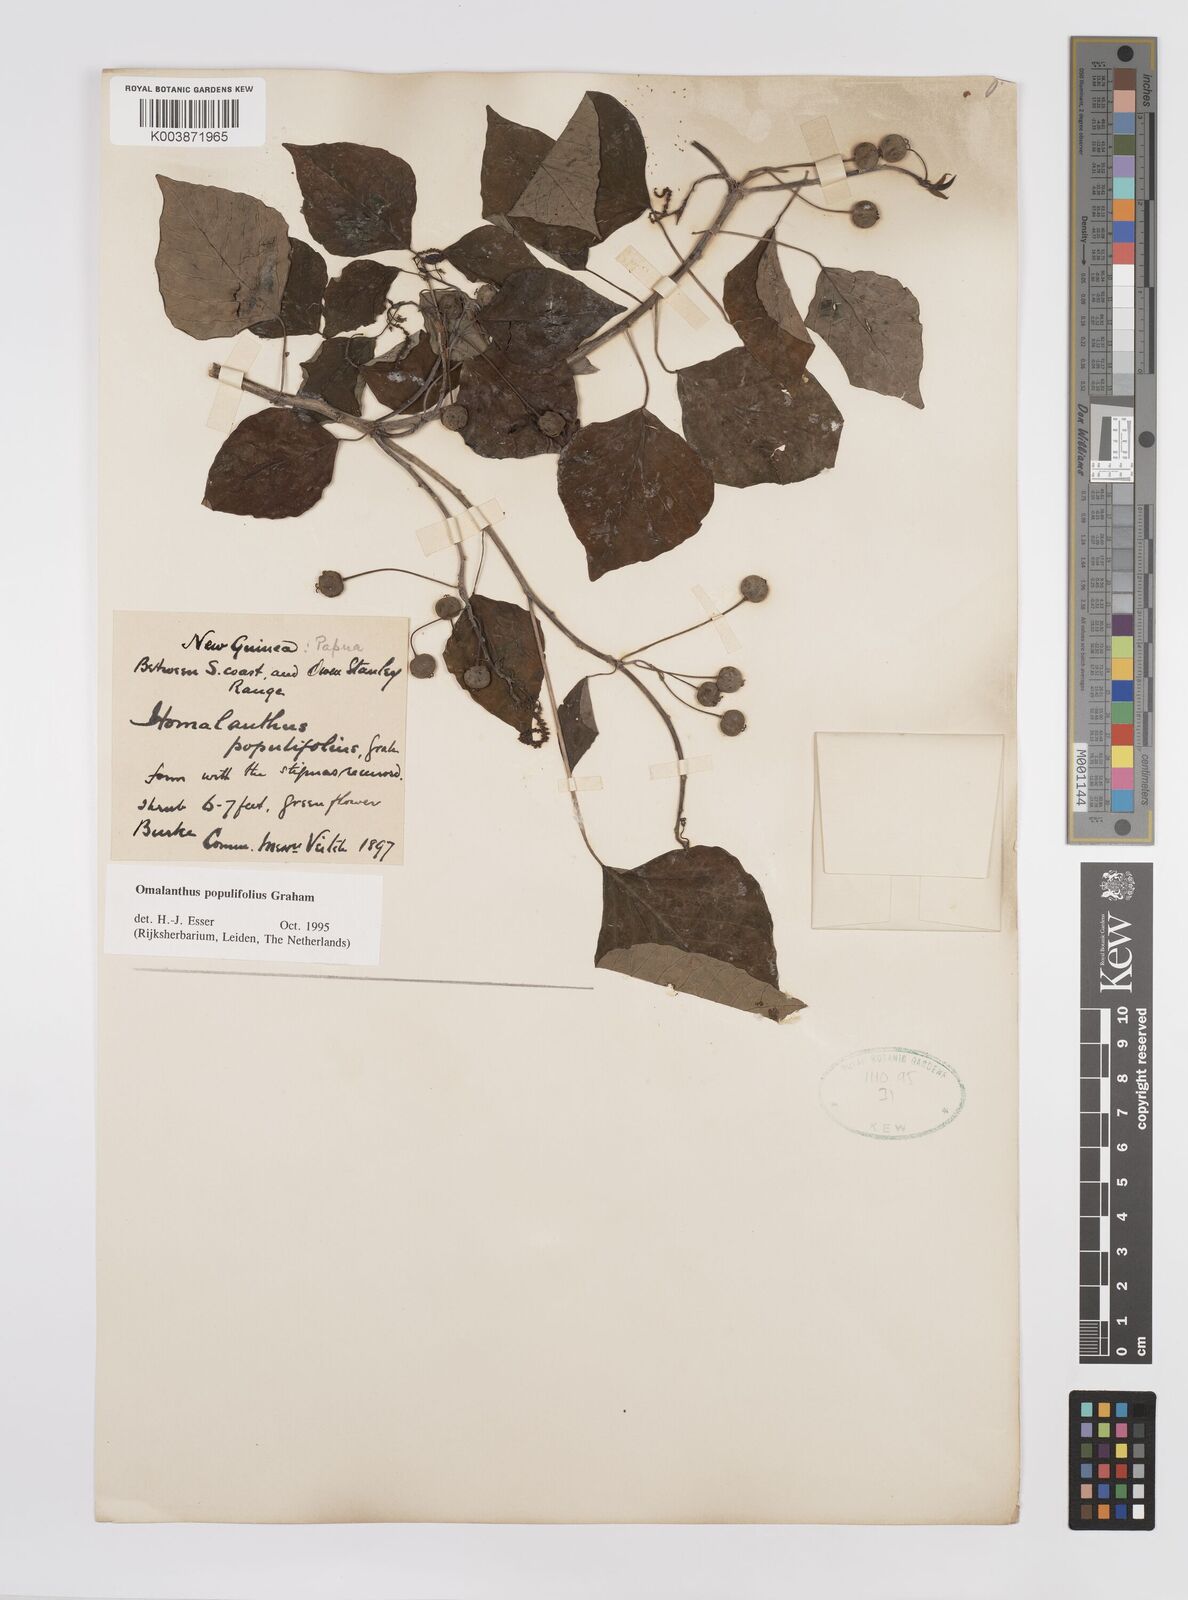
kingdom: Plantae
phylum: Tracheophyta
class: Magnoliopsida
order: Malpighiales
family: Euphorbiaceae
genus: Homalanthus
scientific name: Homalanthus populifolius
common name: Queensland poplar
